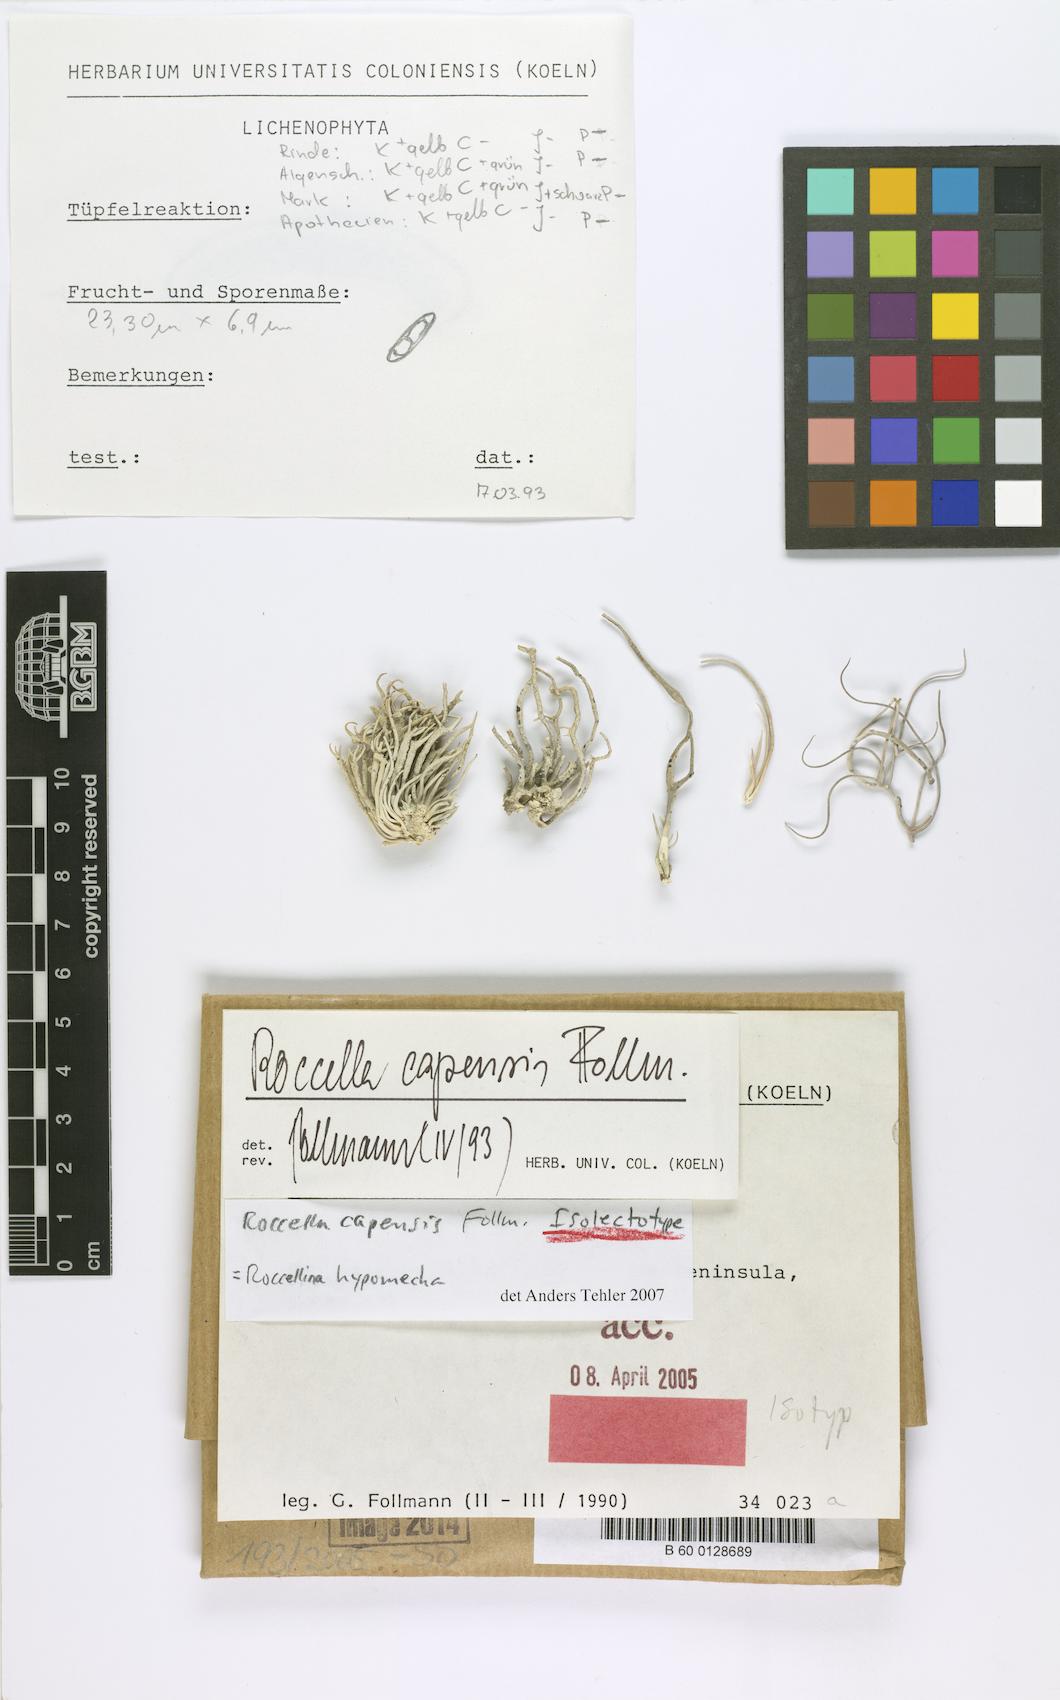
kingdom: Fungi
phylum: Ascomycota
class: Arthoniomycetes
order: Arthoniales
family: Roccellaceae
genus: Roccellina
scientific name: Roccellina capensis
